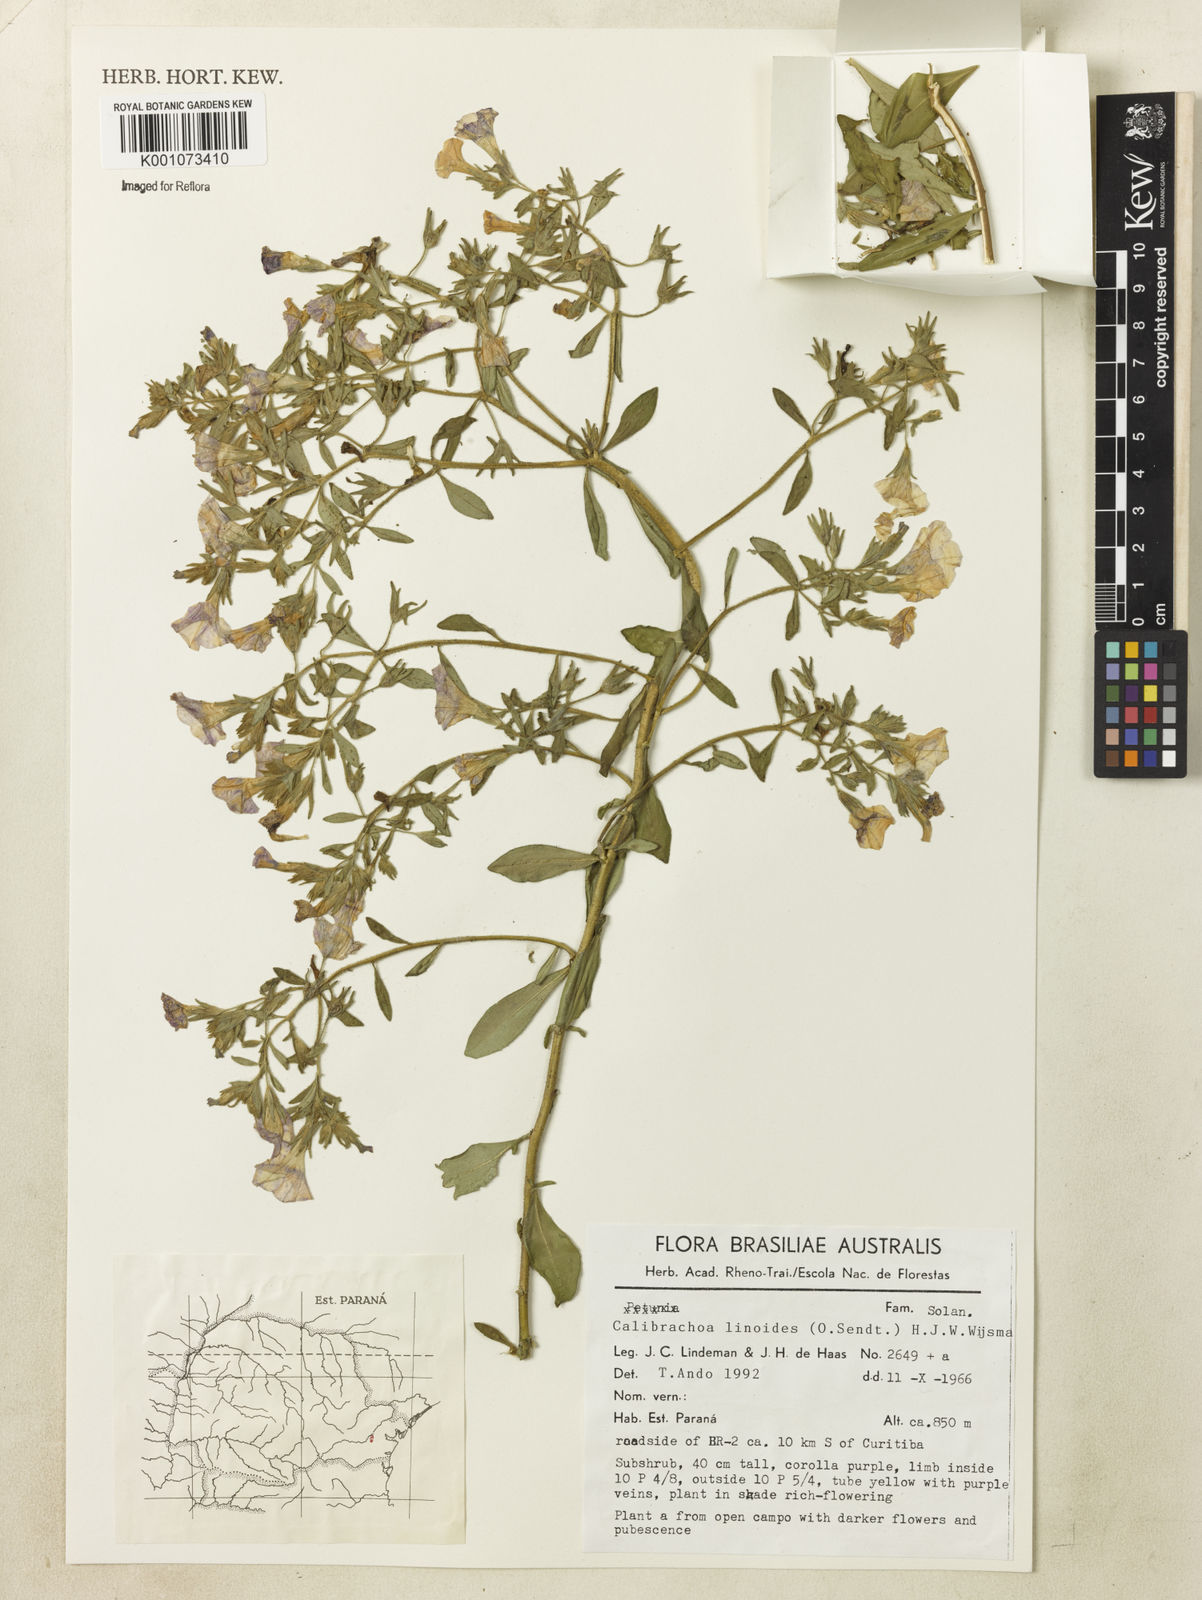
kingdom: Plantae
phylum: Tracheophyta
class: Magnoliopsida
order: Solanales
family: Solanaceae
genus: Calibrachoa
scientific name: Calibrachoa linoides
